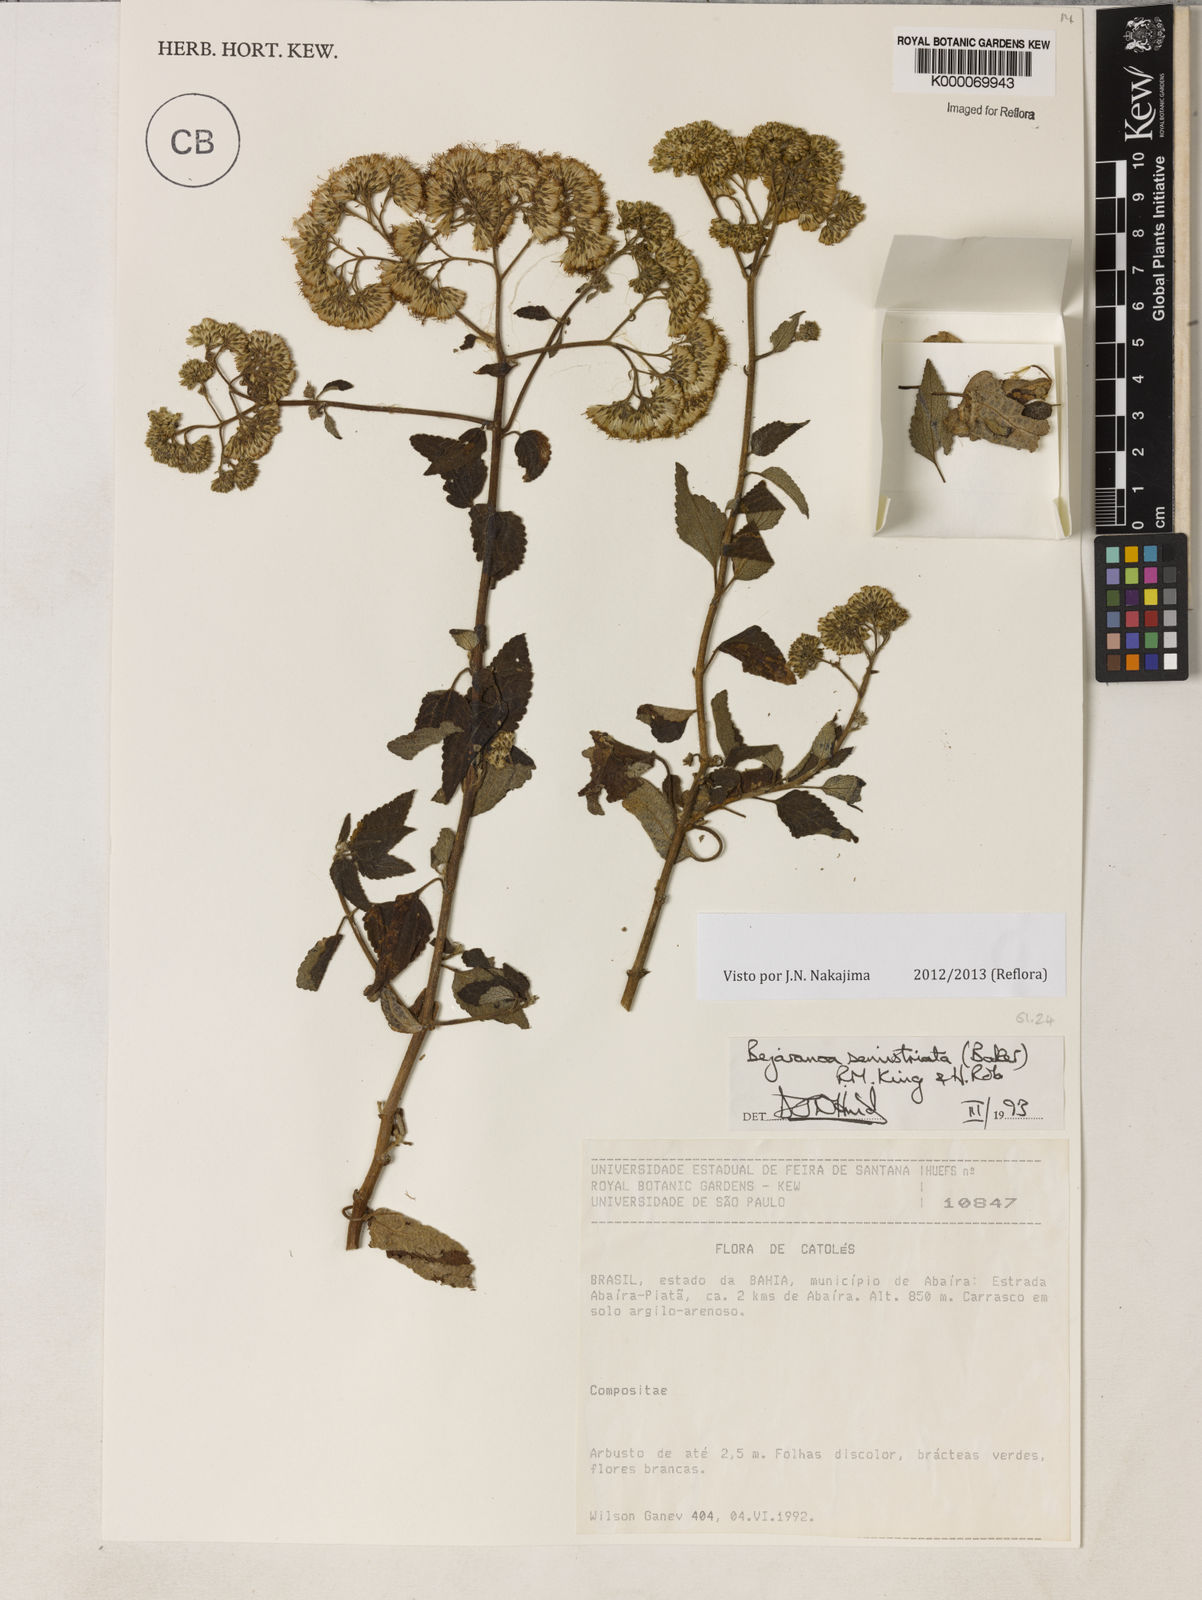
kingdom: Plantae
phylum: Tracheophyta
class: Magnoliopsida
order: Asterales
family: Asteraceae
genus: Bejaranoa
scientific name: Bejaranoa semistriata
